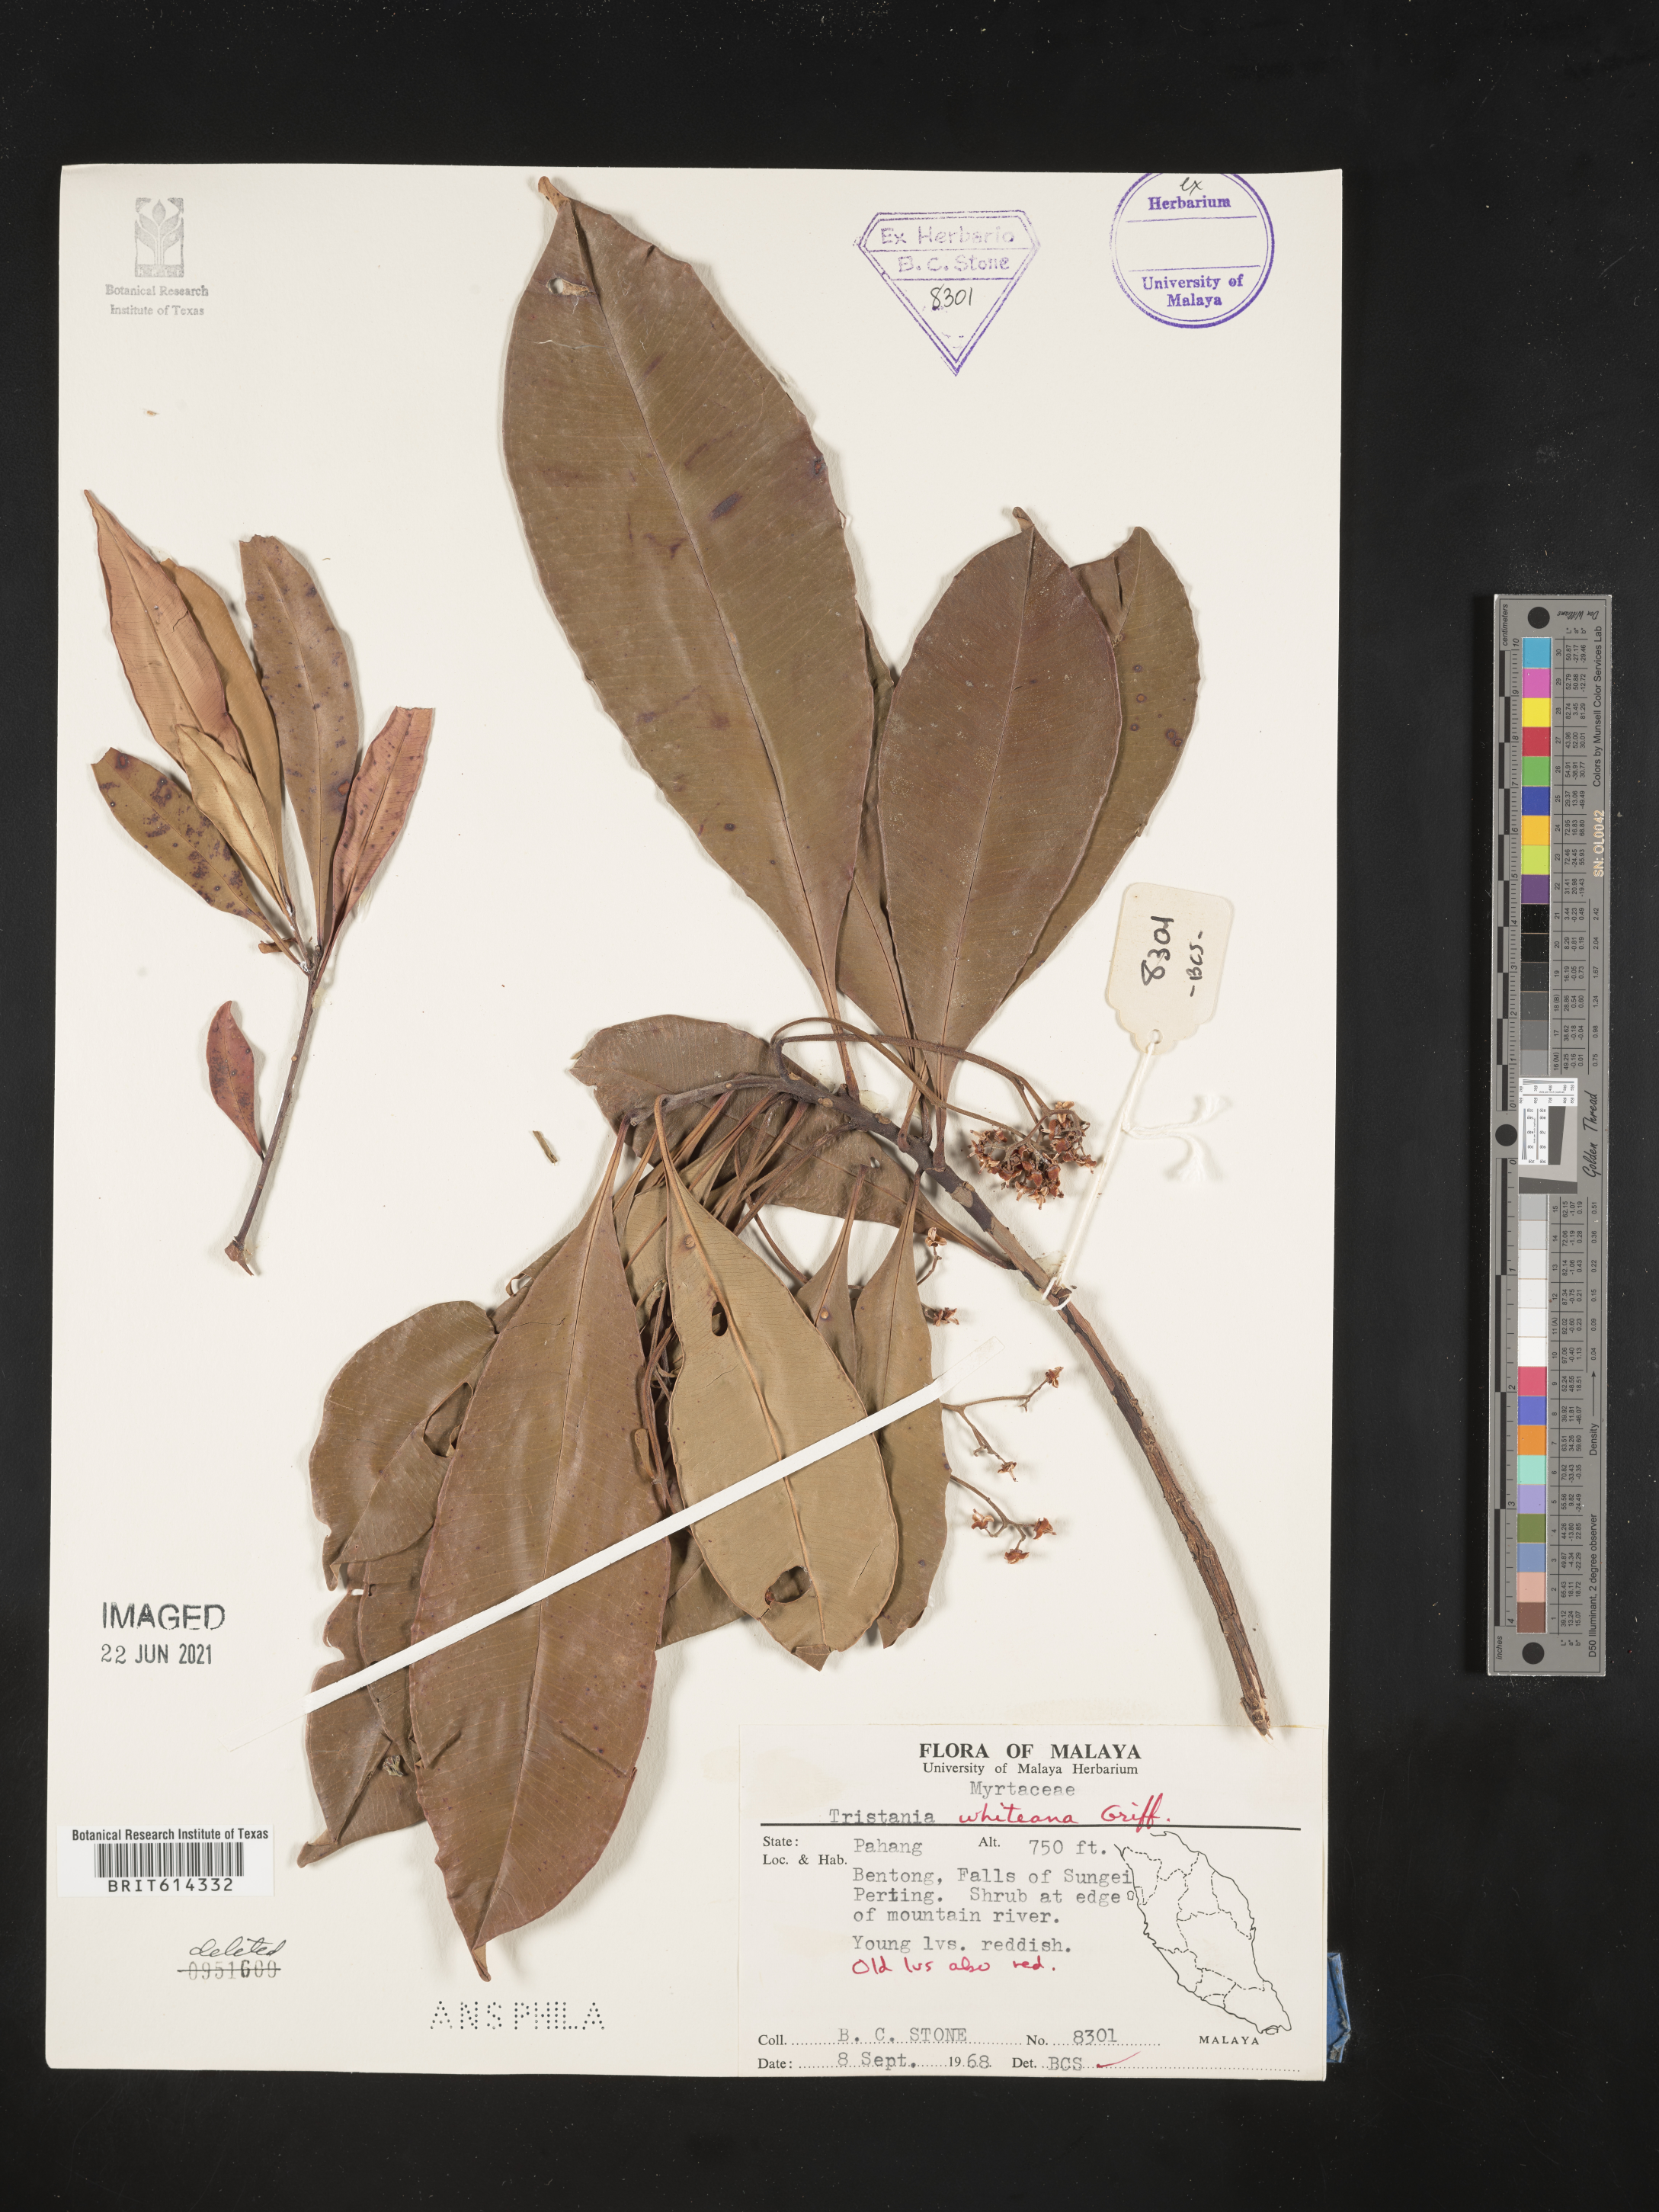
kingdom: Plantae
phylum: Tracheophyta
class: Magnoliopsida
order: Myrtales
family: Myrtaceae
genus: Tristaniopsis
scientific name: Tristaniopsis whiteana
